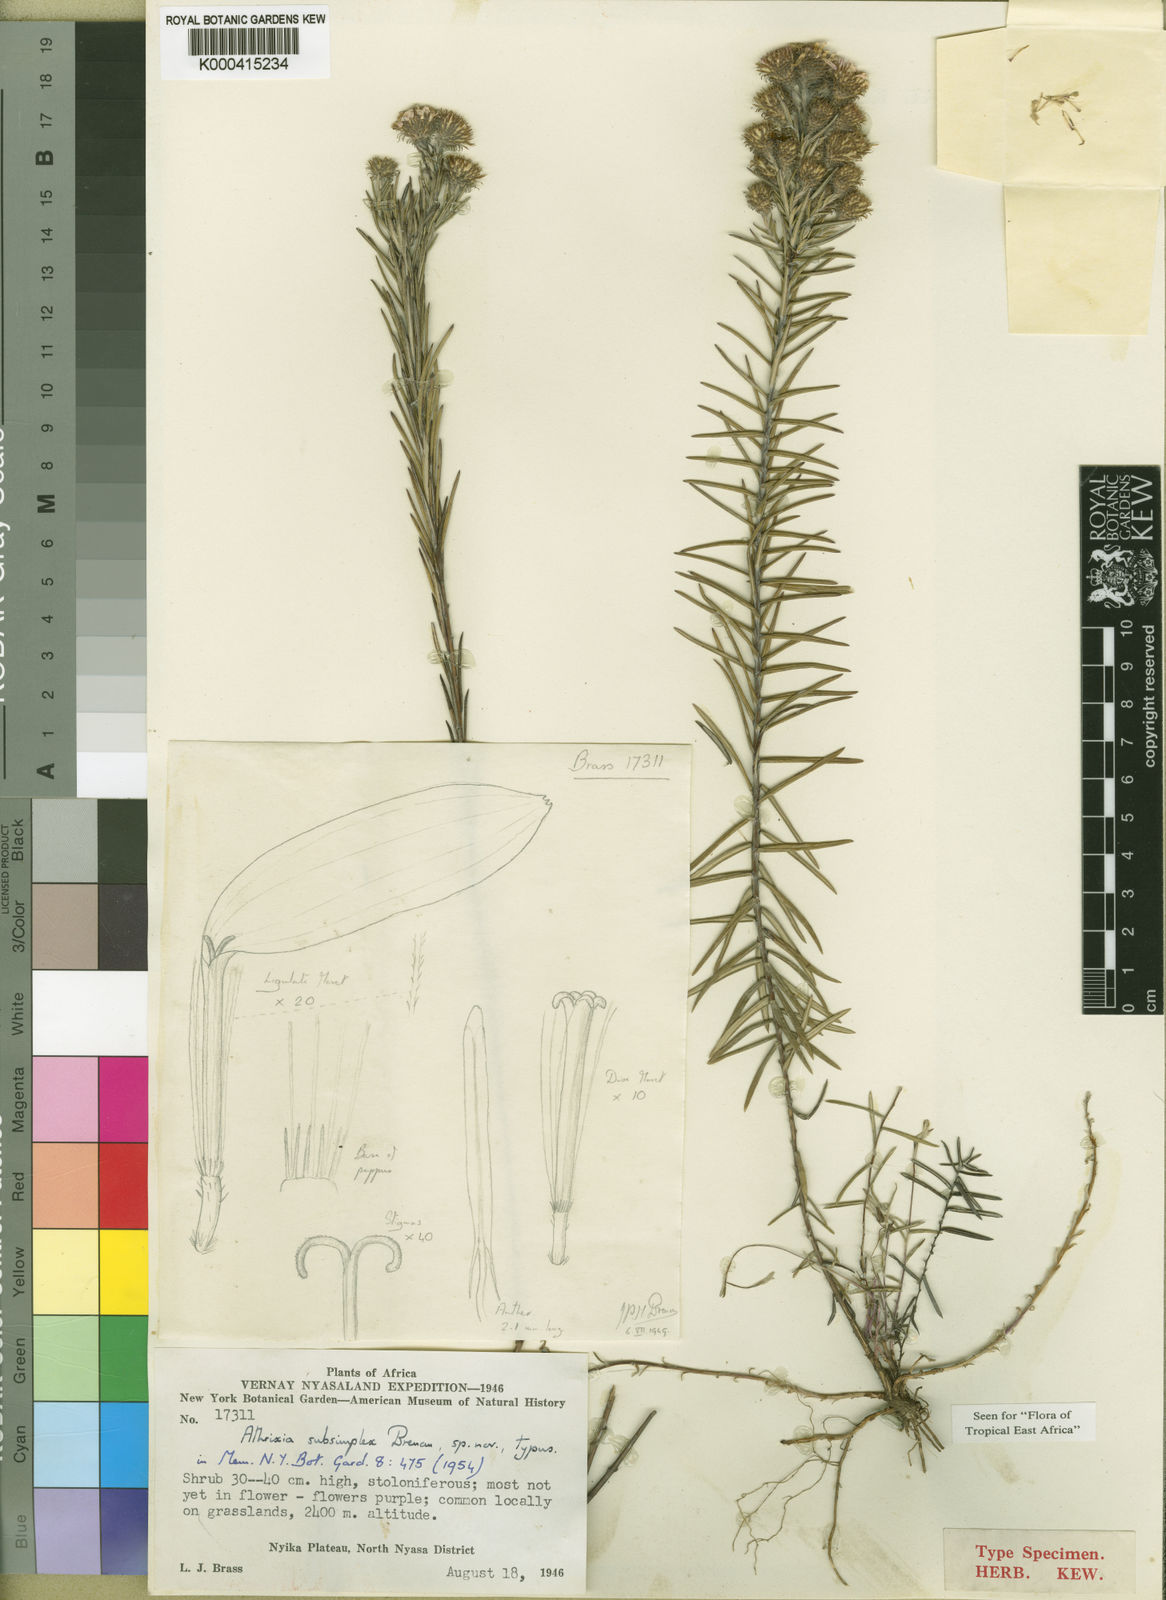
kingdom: Plantae
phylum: Tracheophyta
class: Magnoliopsida
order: Asterales
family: Asteraceae
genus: Athrixia
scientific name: Athrixia subsimplex
